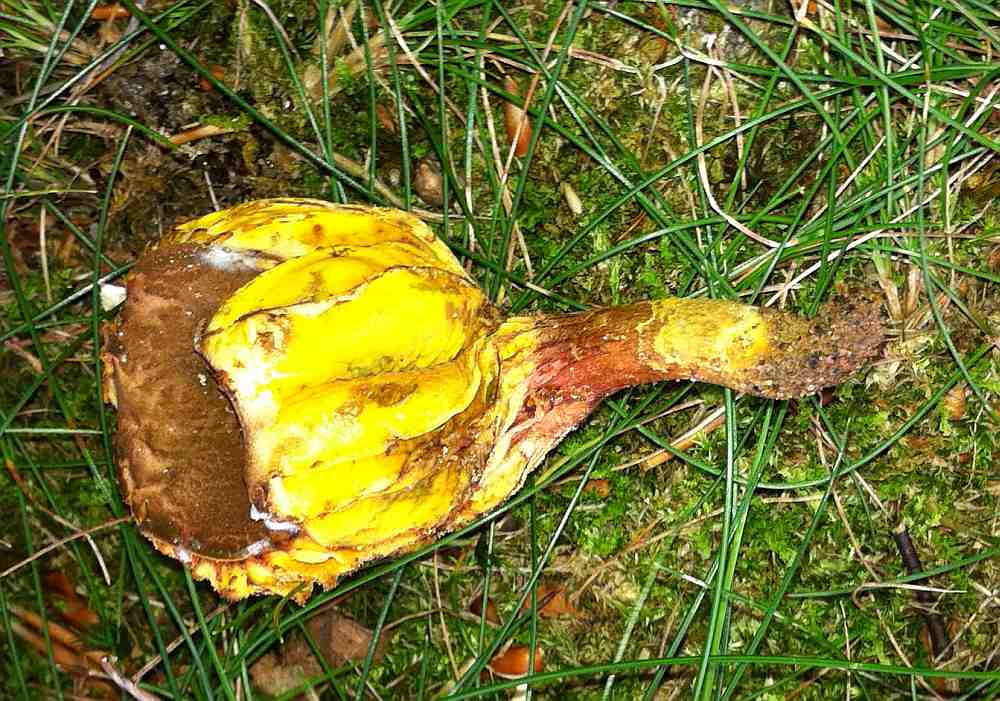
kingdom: Fungi
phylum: Basidiomycota
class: Agaricomycetes
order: Boletales
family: Boletaceae
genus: Phylloporus
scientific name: Phylloporus pelletieri
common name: lamelrørhat
